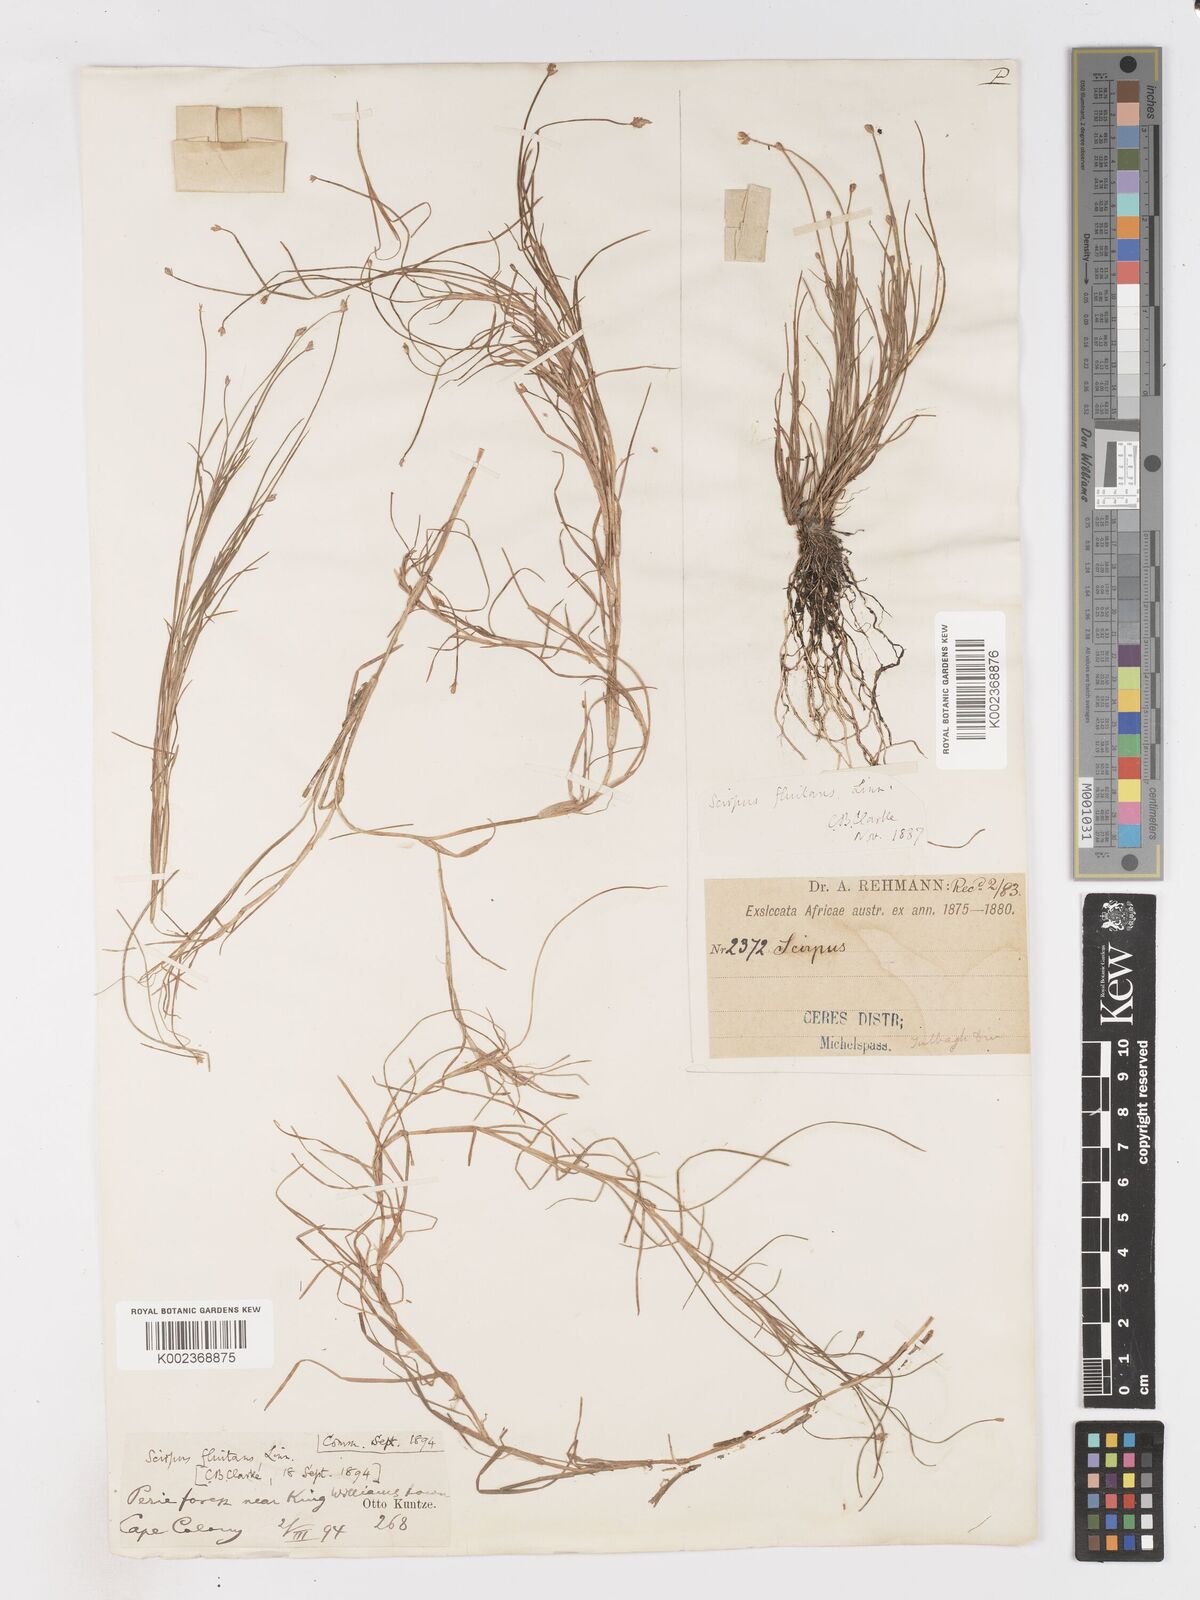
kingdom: Plantae
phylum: Tracheophyta
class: Liliopsida
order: Poales
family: Cyperaceae
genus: Isolepis
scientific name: Isolepis fluitans
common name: Floating club-rush
